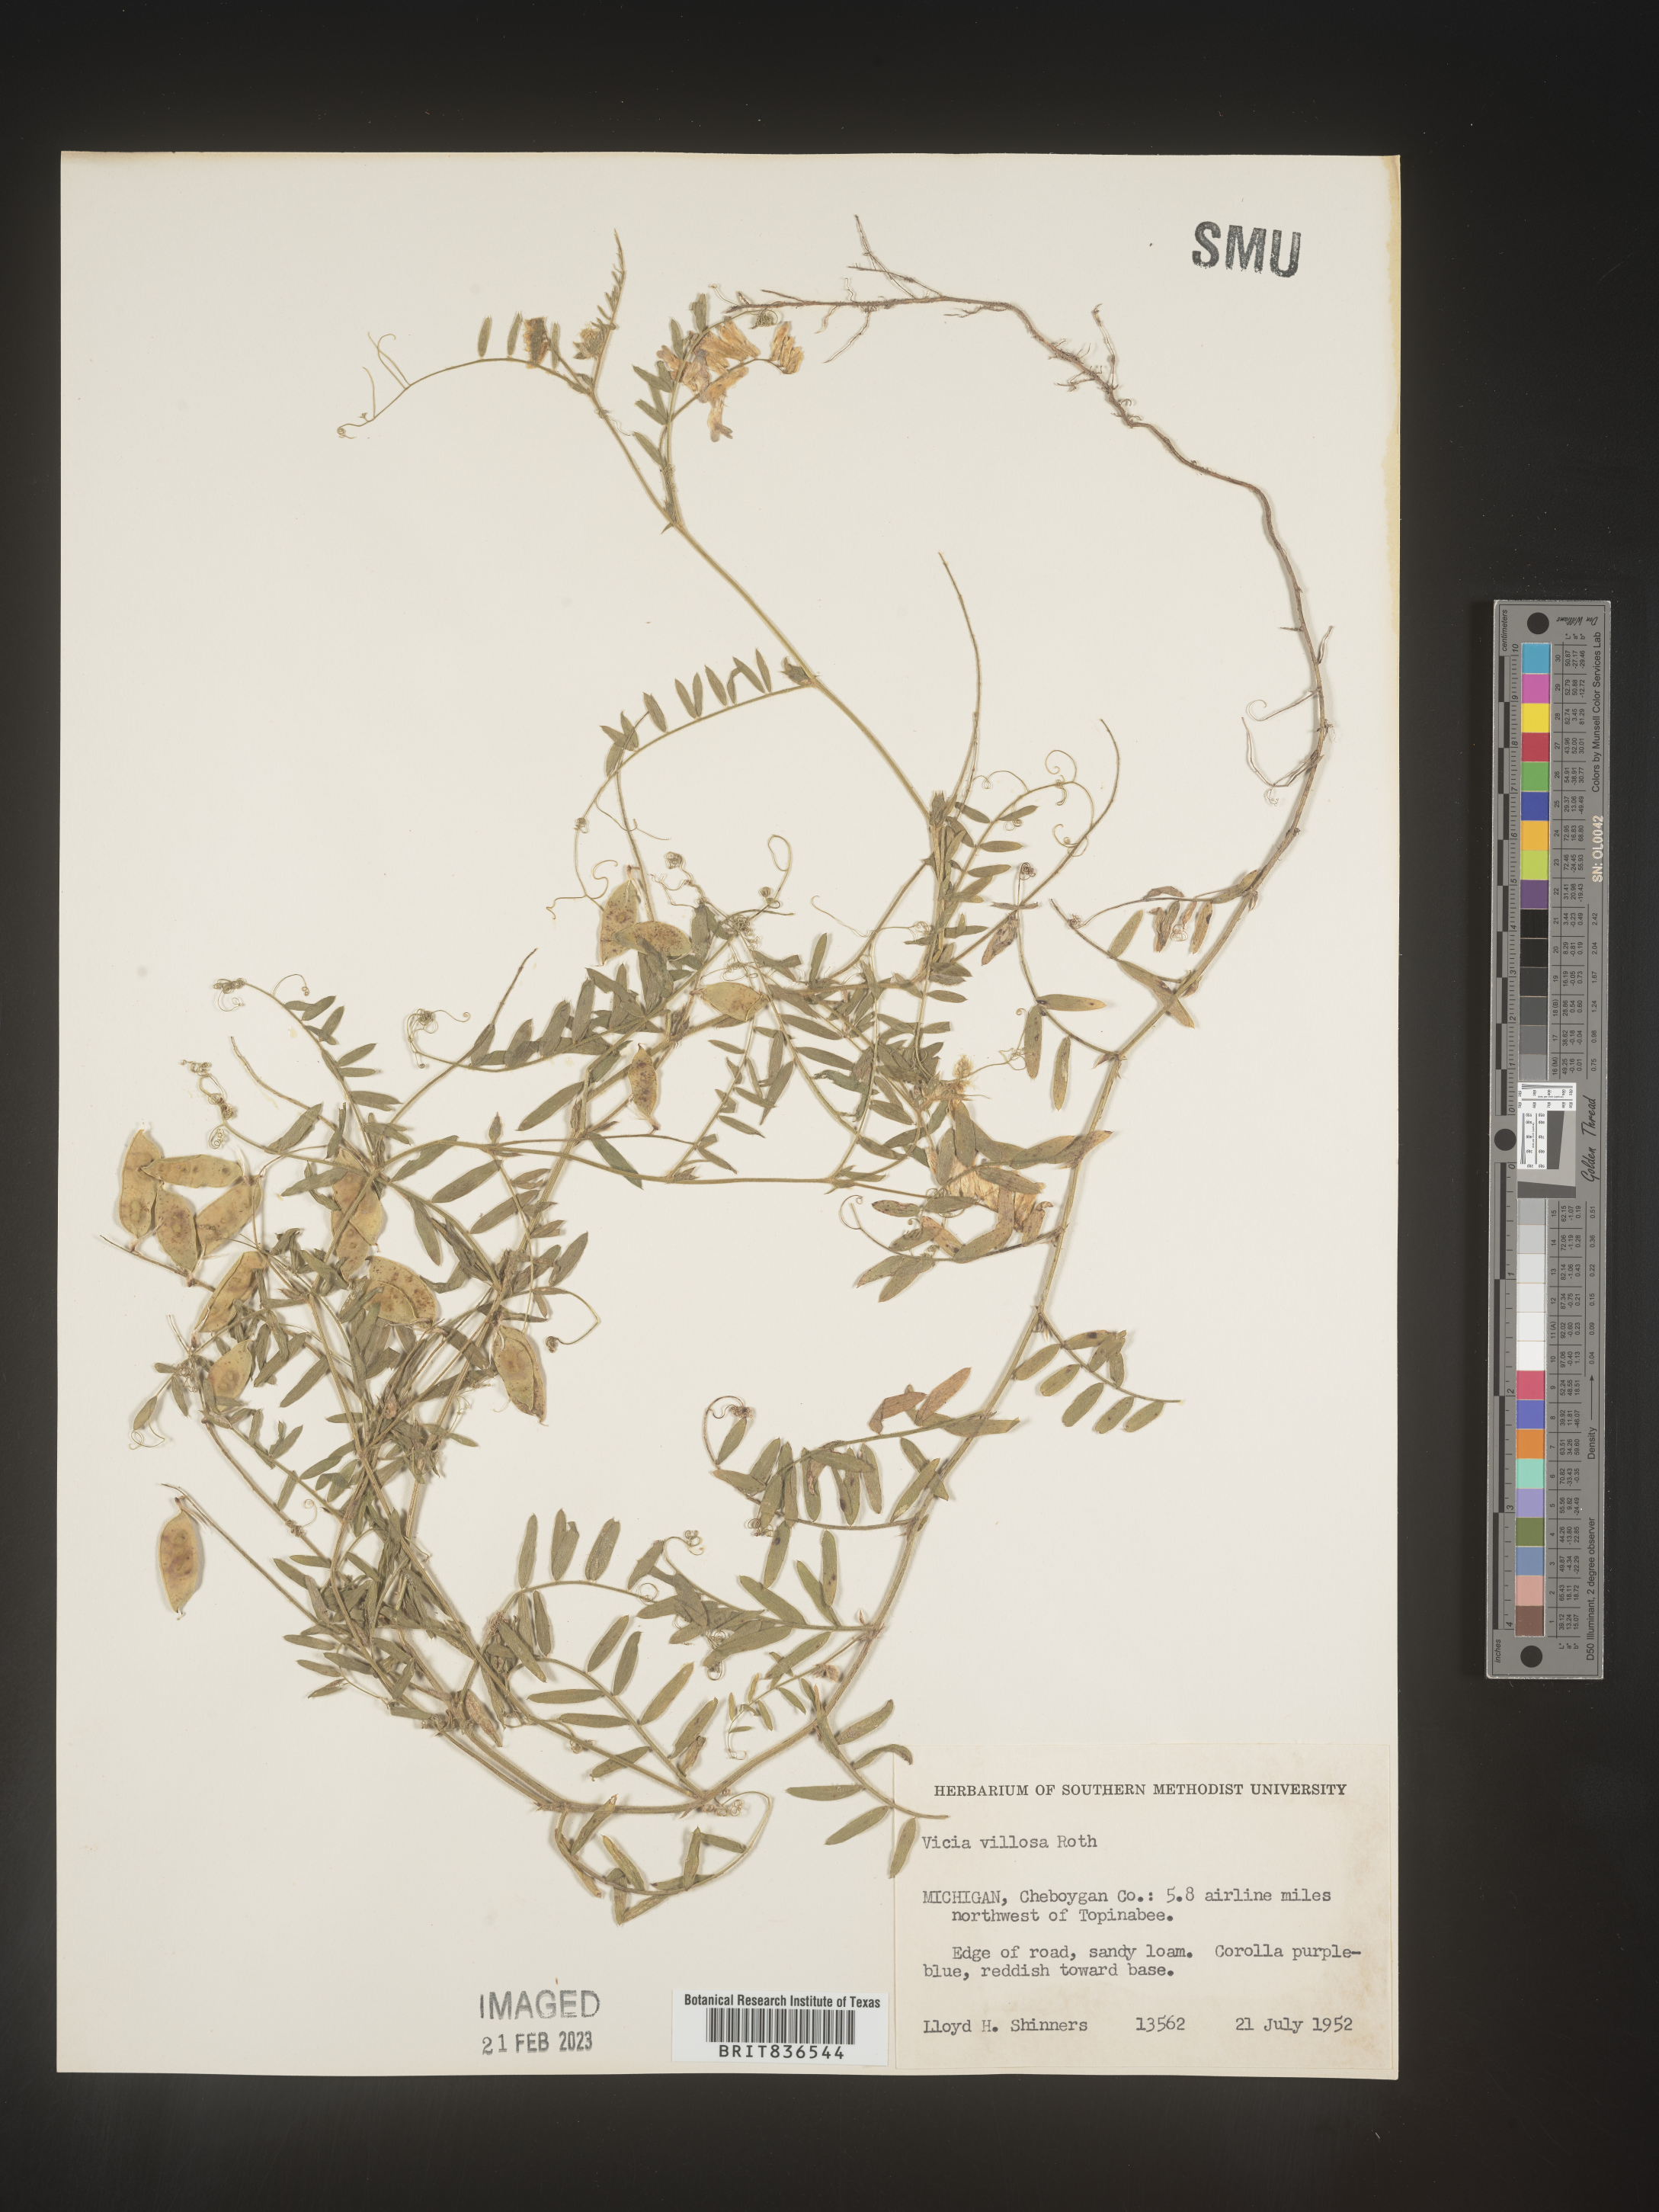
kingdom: Plantae
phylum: Tracheophyta
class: Magnoliopsida
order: Fabales
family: Fabaceae
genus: Vicia
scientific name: Vicia villosa
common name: Fodder vetch
